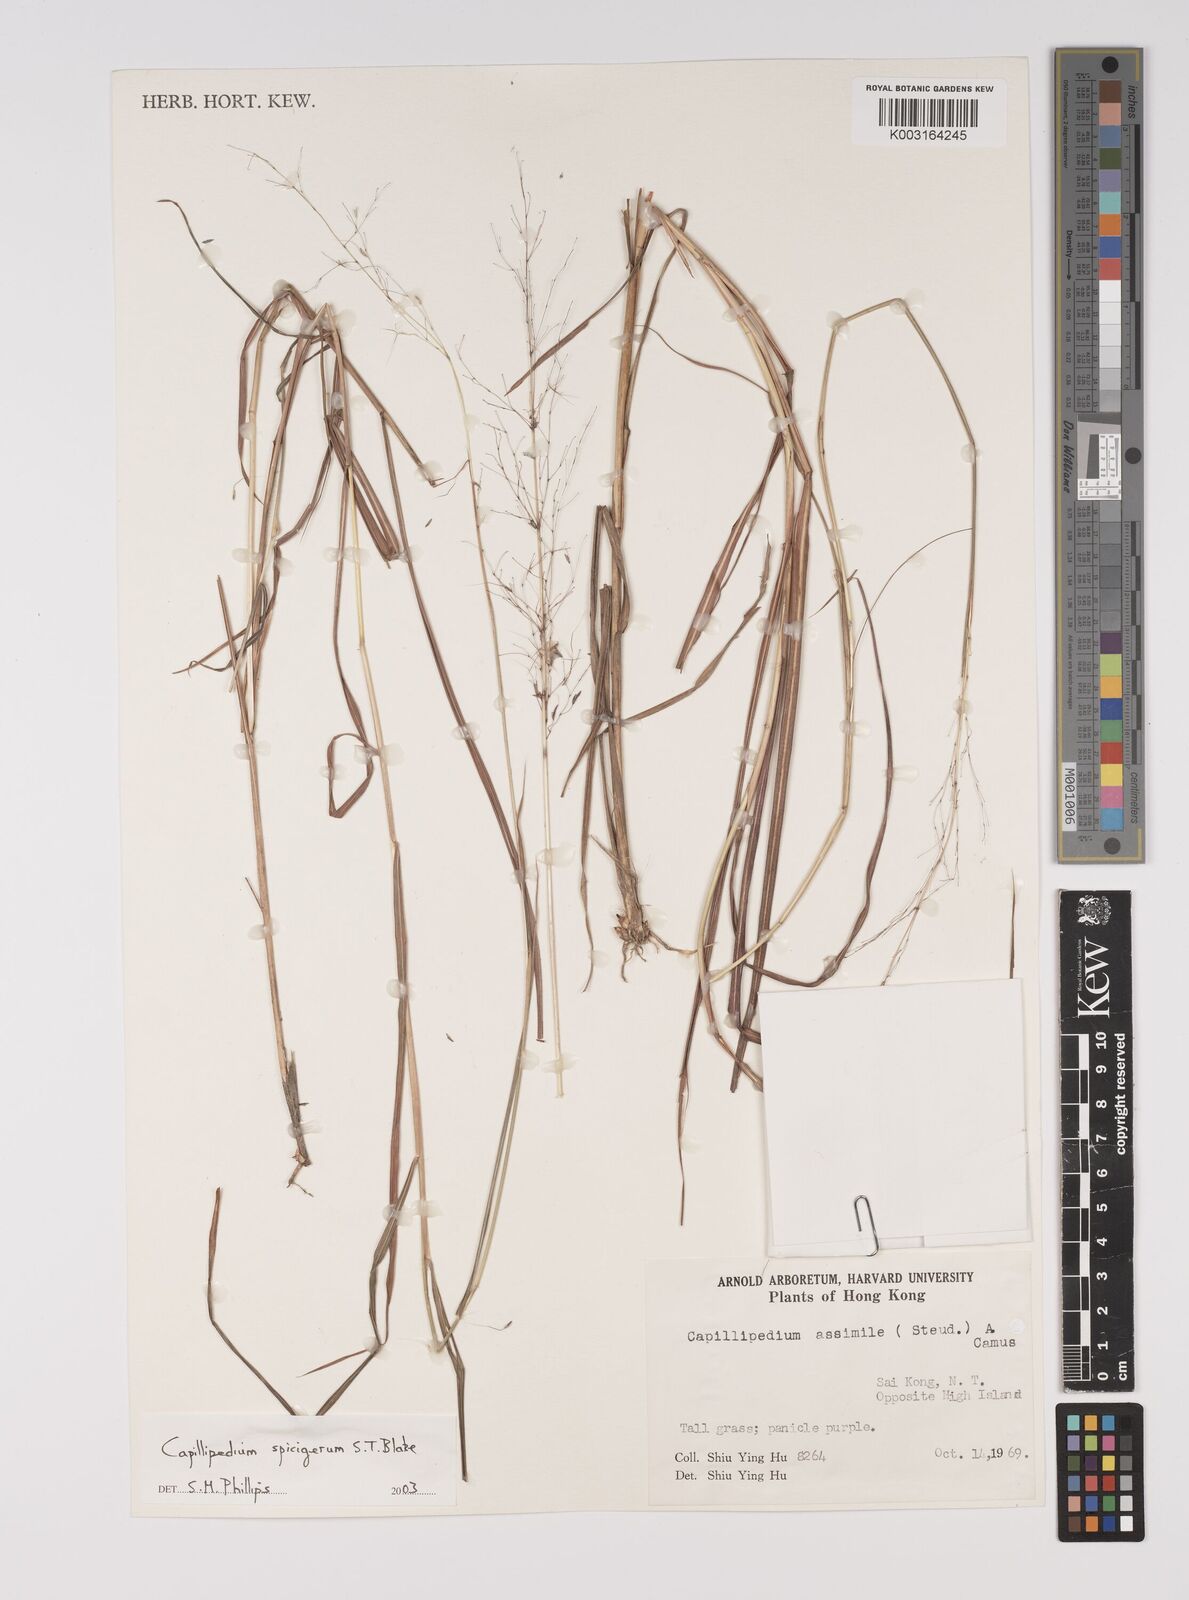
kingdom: Plantae
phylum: Tracheophyta
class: Liliopsida
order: Poales
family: Poaceae
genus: Capillipedium
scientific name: Capillipedium spicigerum
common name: Scented-top grass
